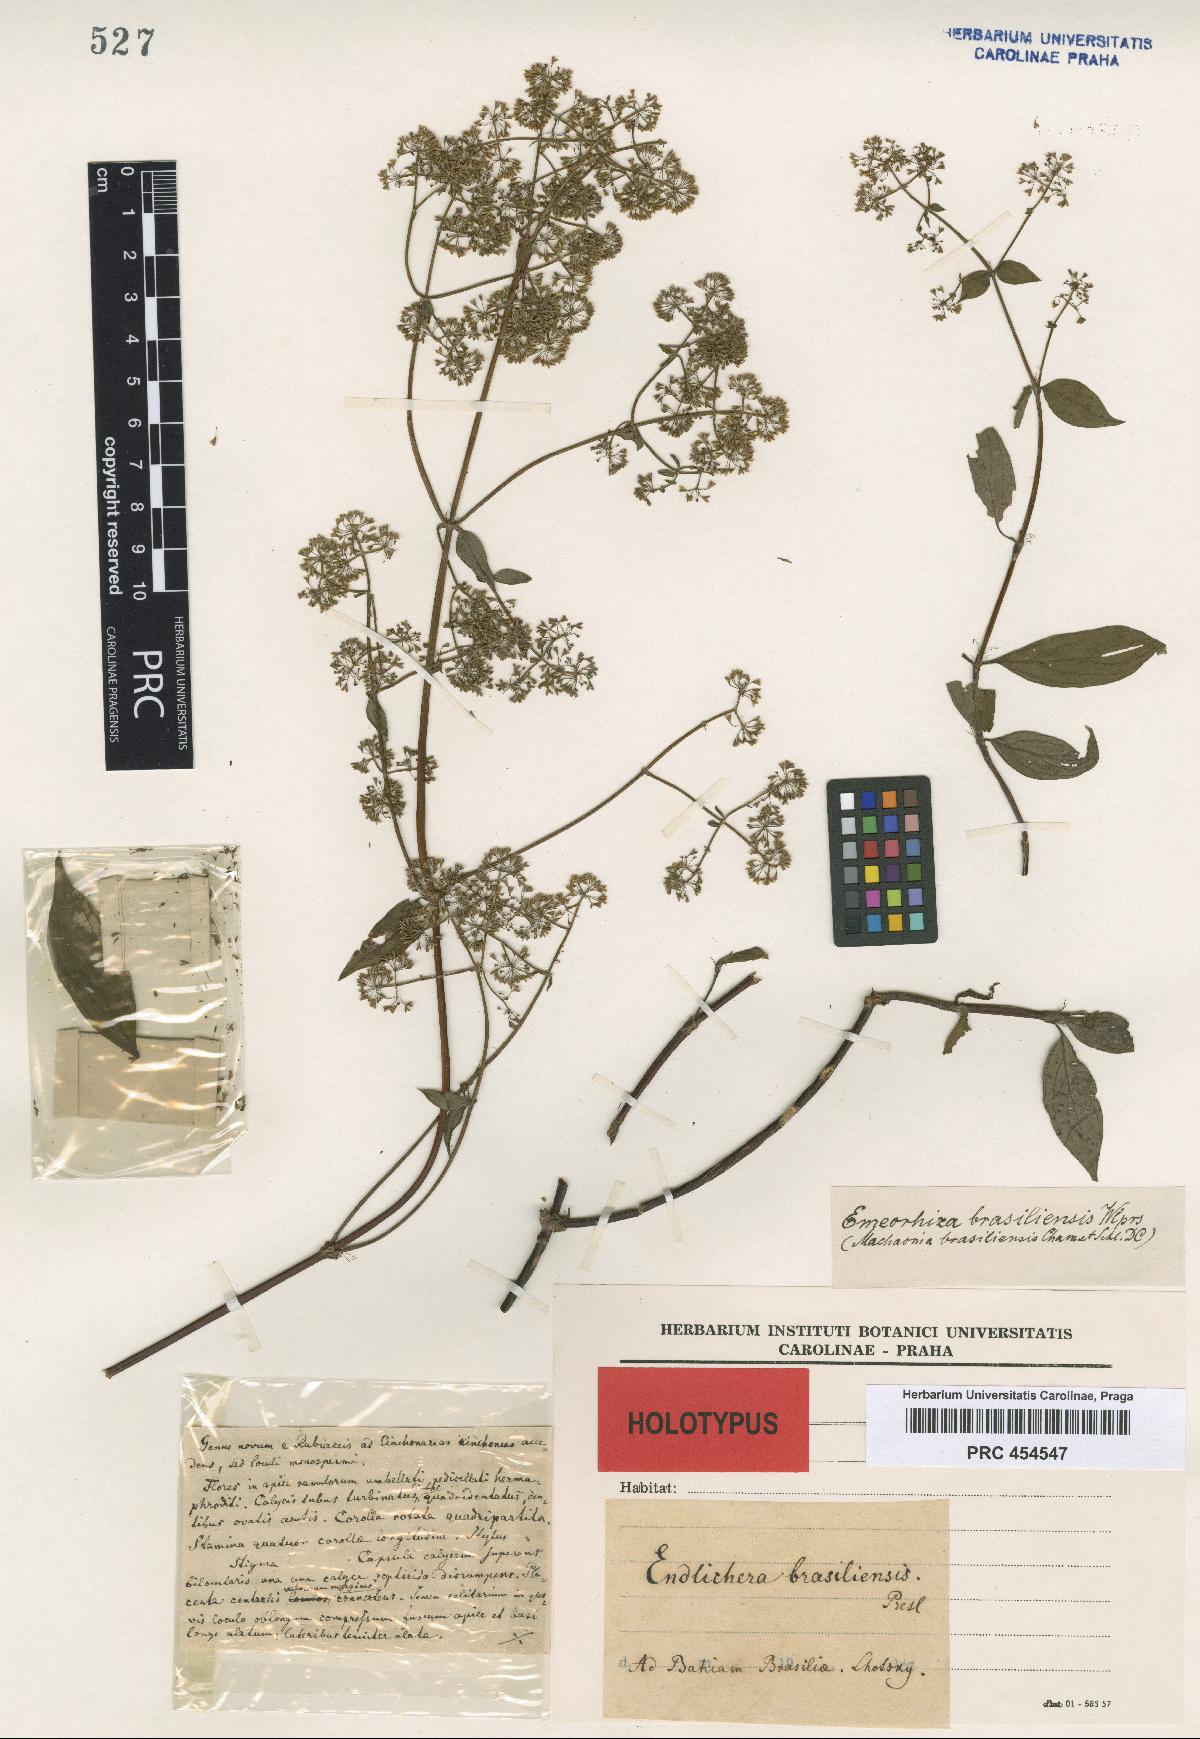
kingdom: Plantae
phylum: Tracheophyta
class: Magnoliopsida
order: Gentianales
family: Rubiaceae
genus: Emmeorhiza
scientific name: Emmeorhiza umbellata
